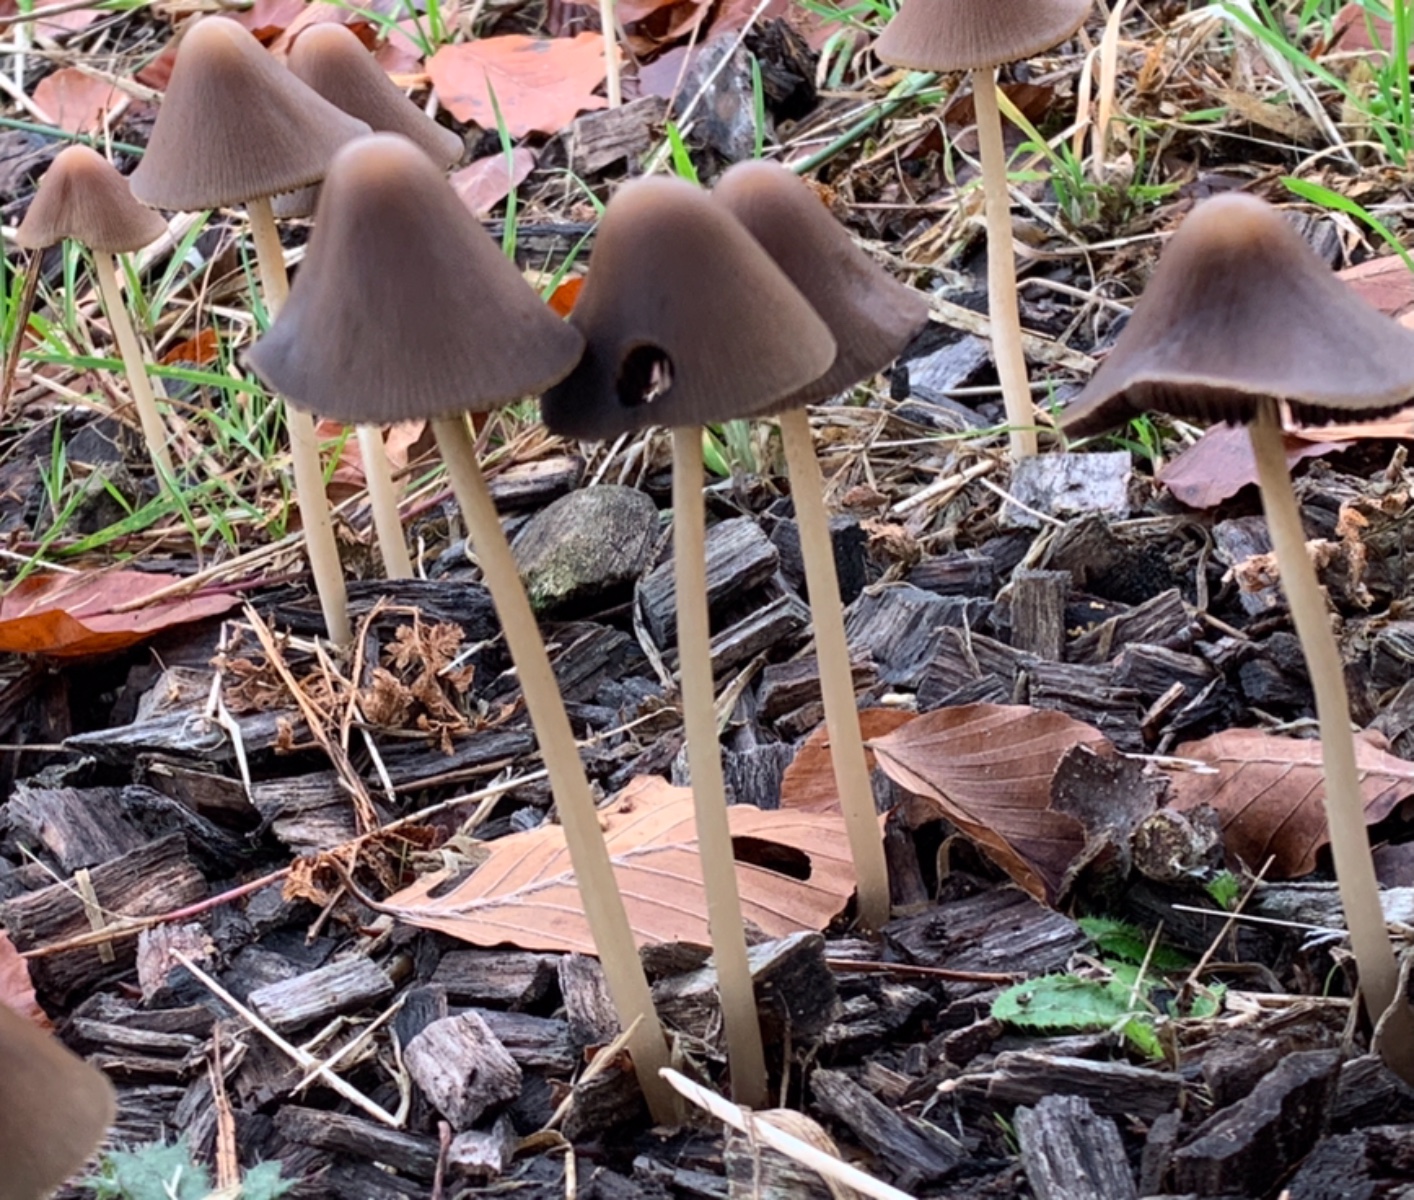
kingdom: Fungi
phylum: Basidiomycota
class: Agaricomycetes
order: Agaricales
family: Psathyrellaceae
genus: Parasola
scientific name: Parasola conopilea
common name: kegle-hjulhat
